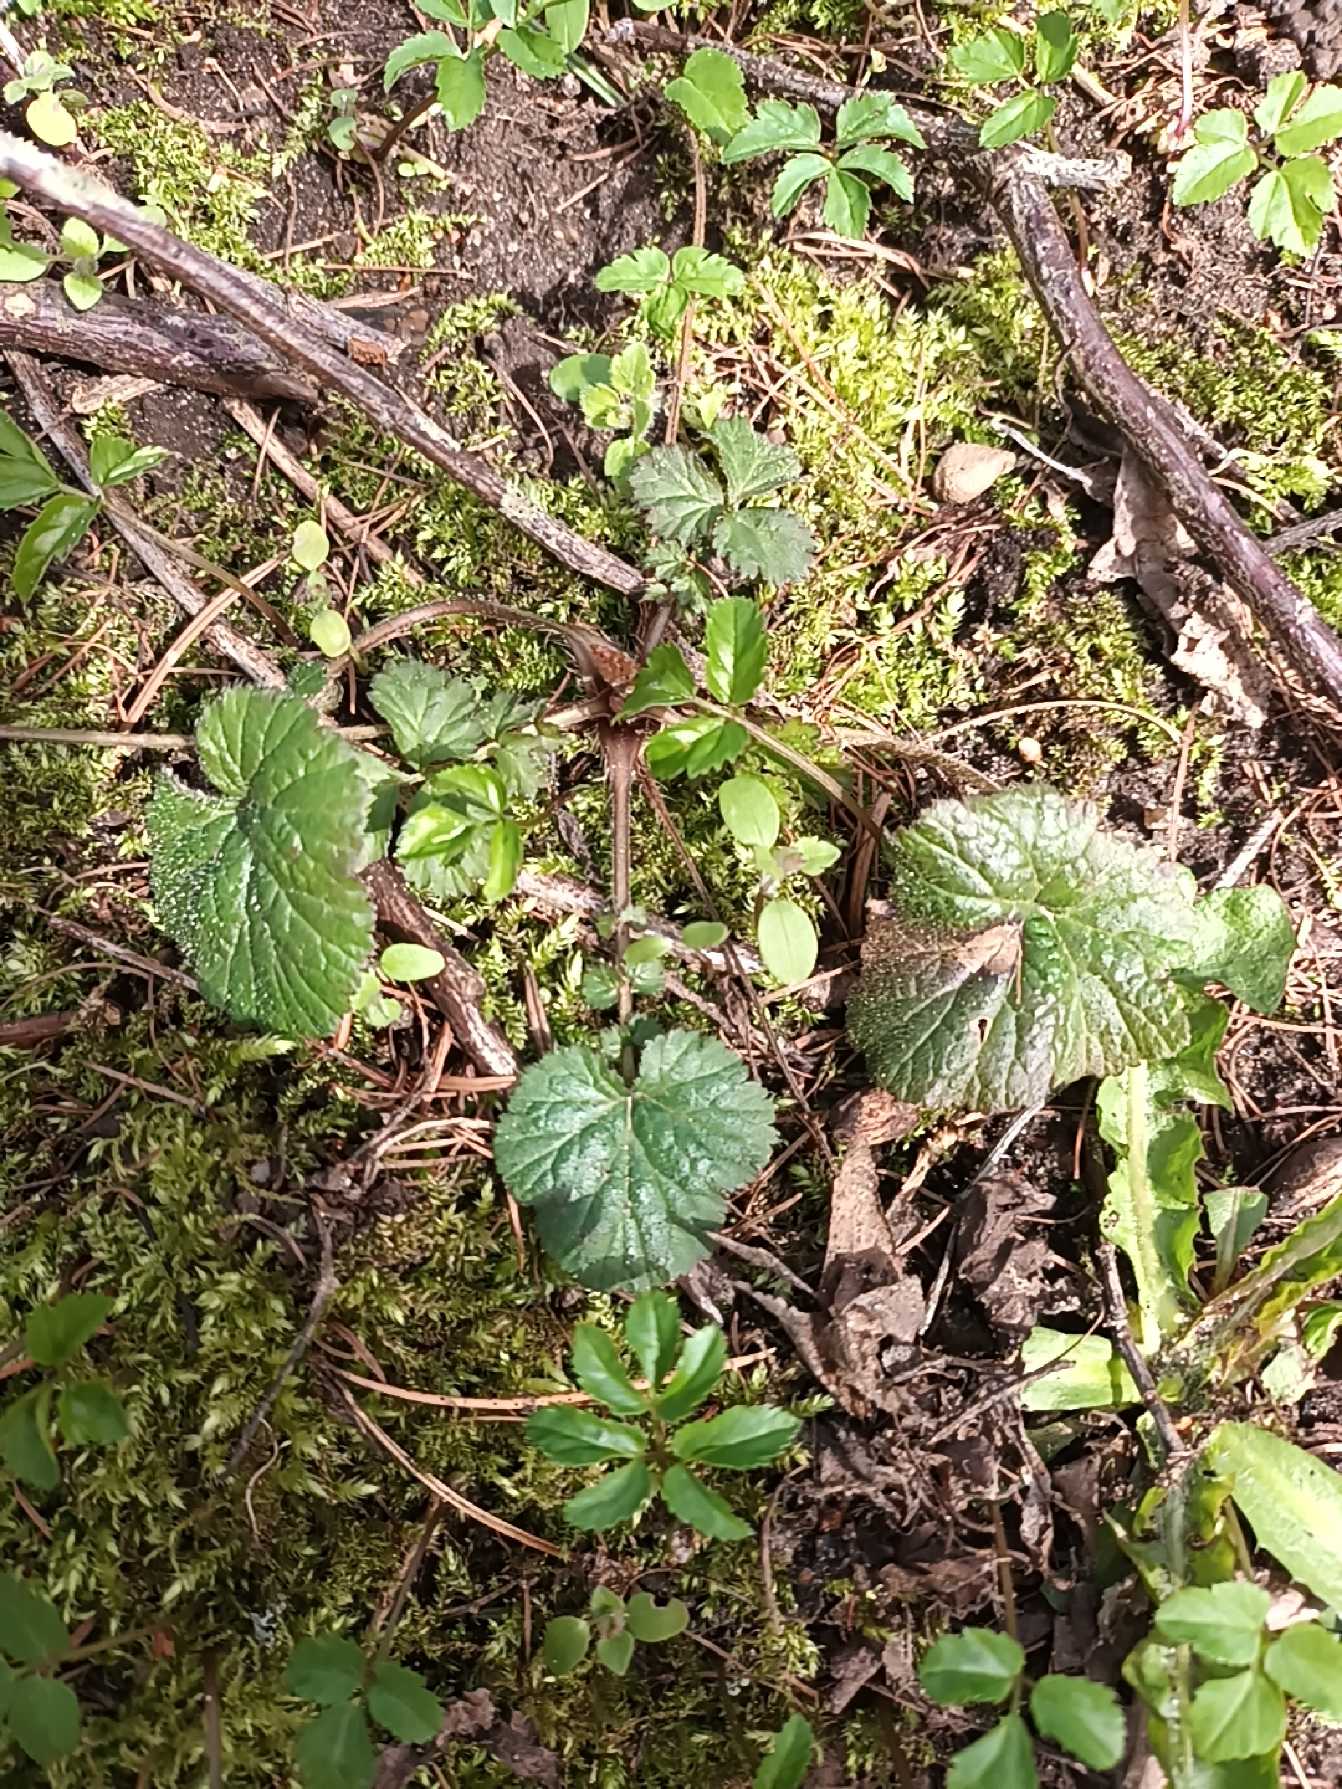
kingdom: Plantae
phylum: Tracheophyta
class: Magnoliopsida
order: Rosales
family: Rosaceae
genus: Geum
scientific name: Geum urbanum
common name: Feber-nellikerod
